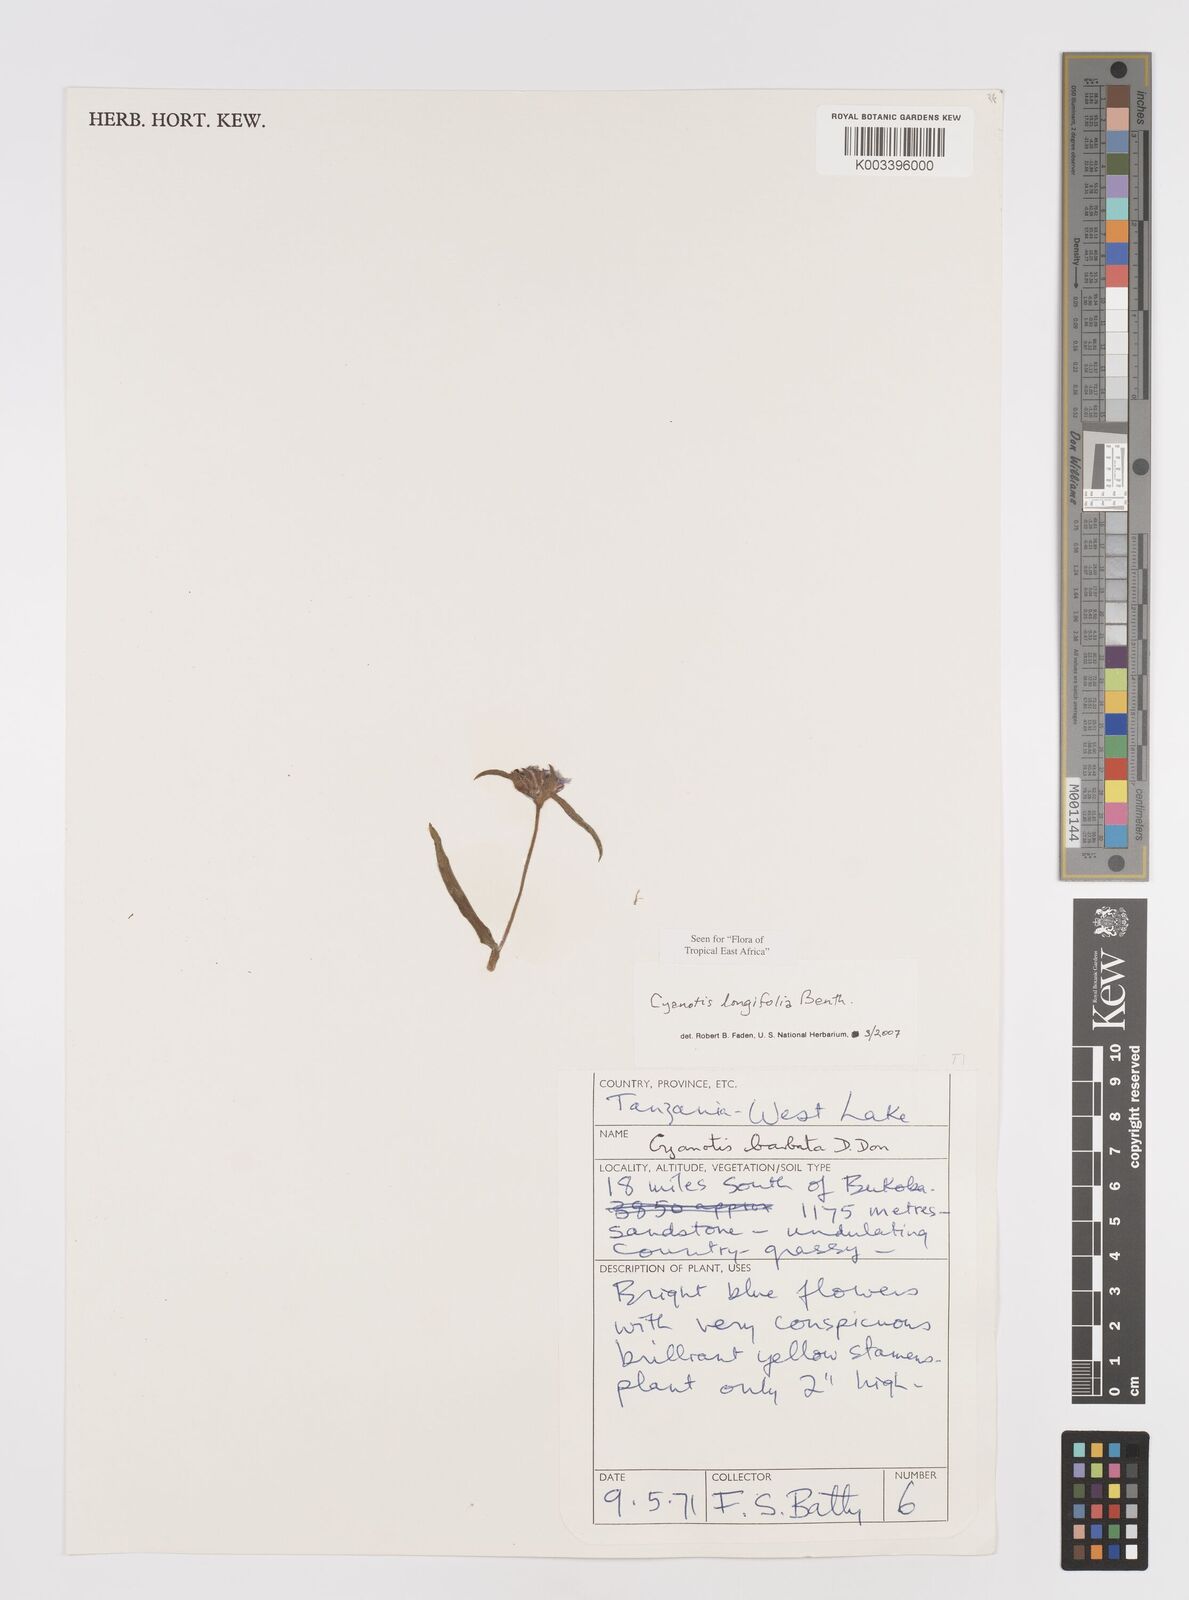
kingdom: Plantae
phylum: Tracheophyta
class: Liliopsida
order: Commelinales
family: Commelinaceae
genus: Cyanotis
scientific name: Cyanotis longifolia
